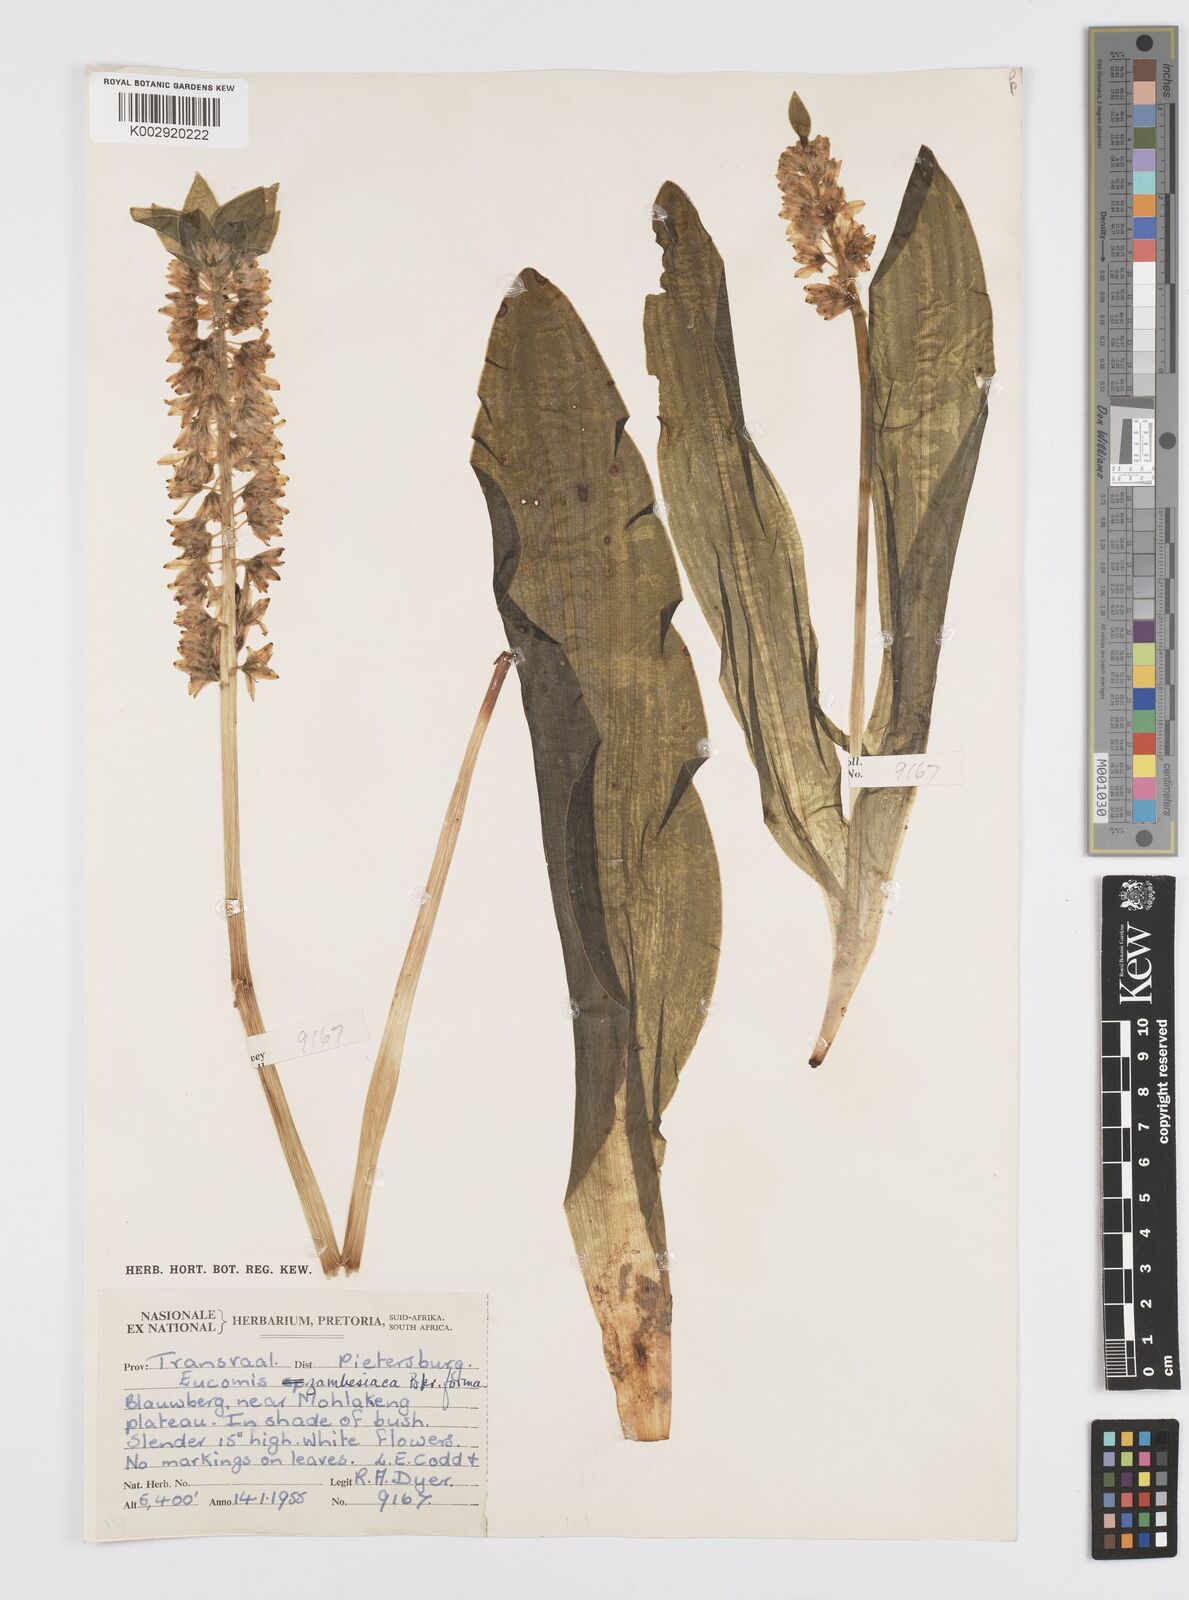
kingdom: Plantae
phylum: Tracheophyta
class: Liliopsida
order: Asparagales
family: Asparagaceae
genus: Eucomis
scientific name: Eucomis zambesiaca
